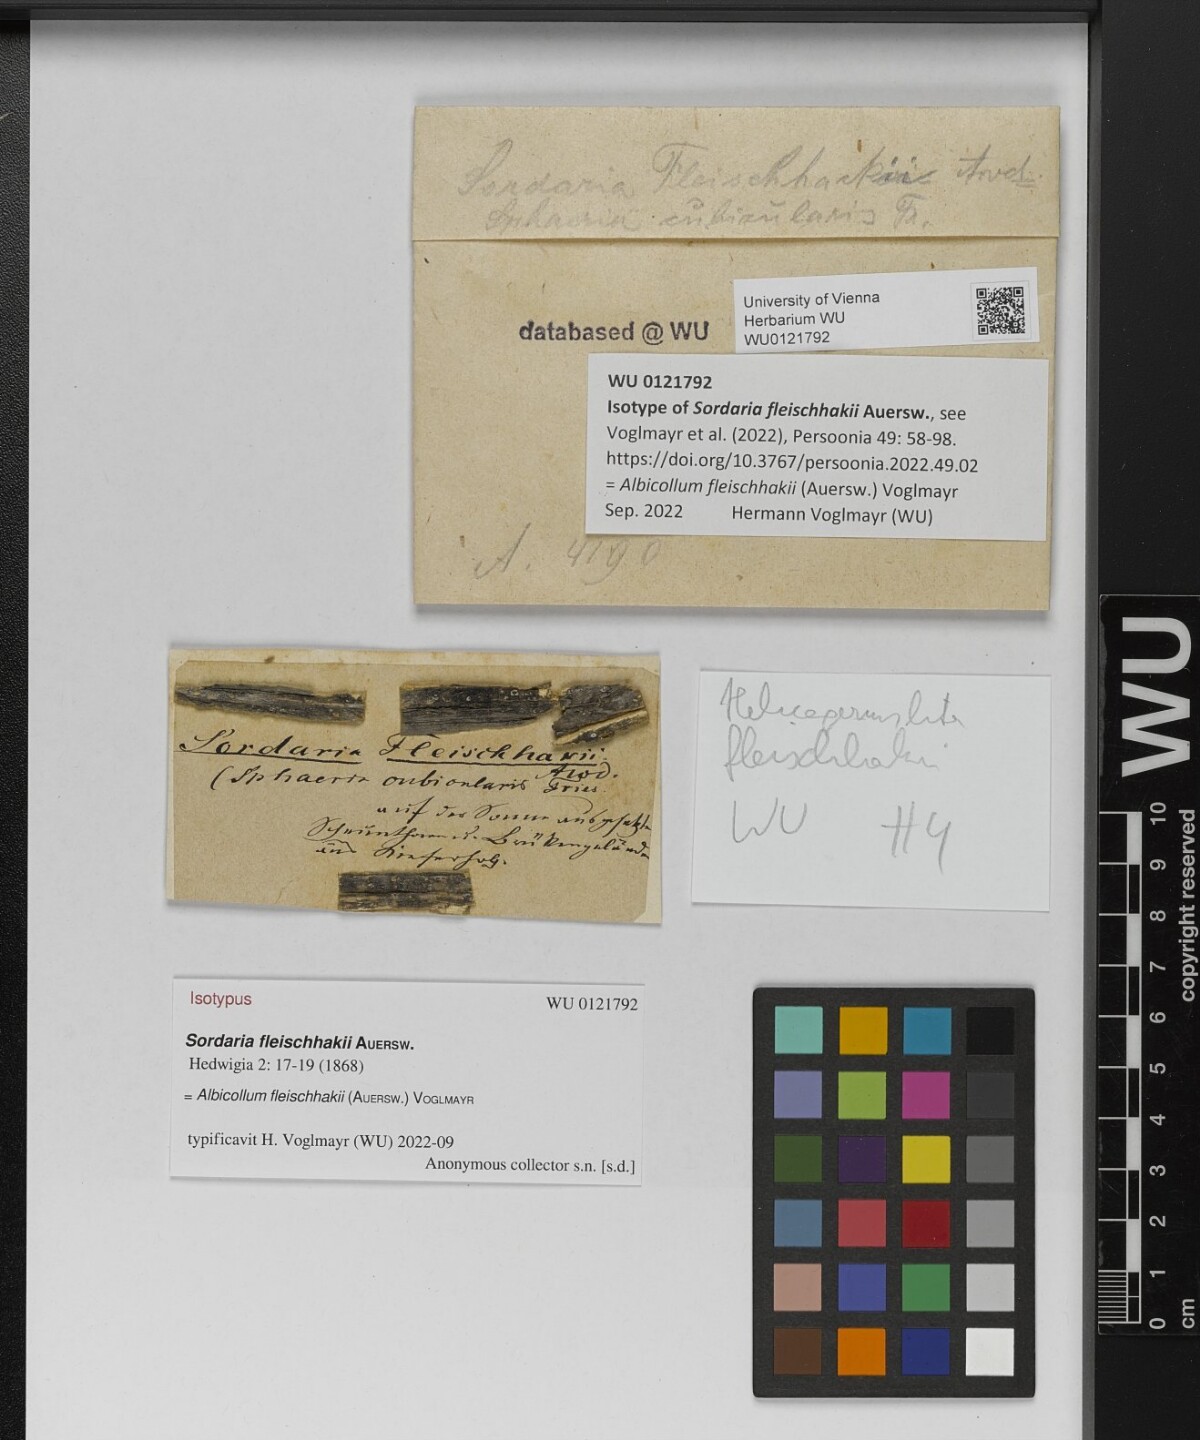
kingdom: Fungi
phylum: Ascomycota
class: Sordariomycetes
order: Xylariales
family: Xylariaceae
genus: Albicollum
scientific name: Albicollum fleischhakii
